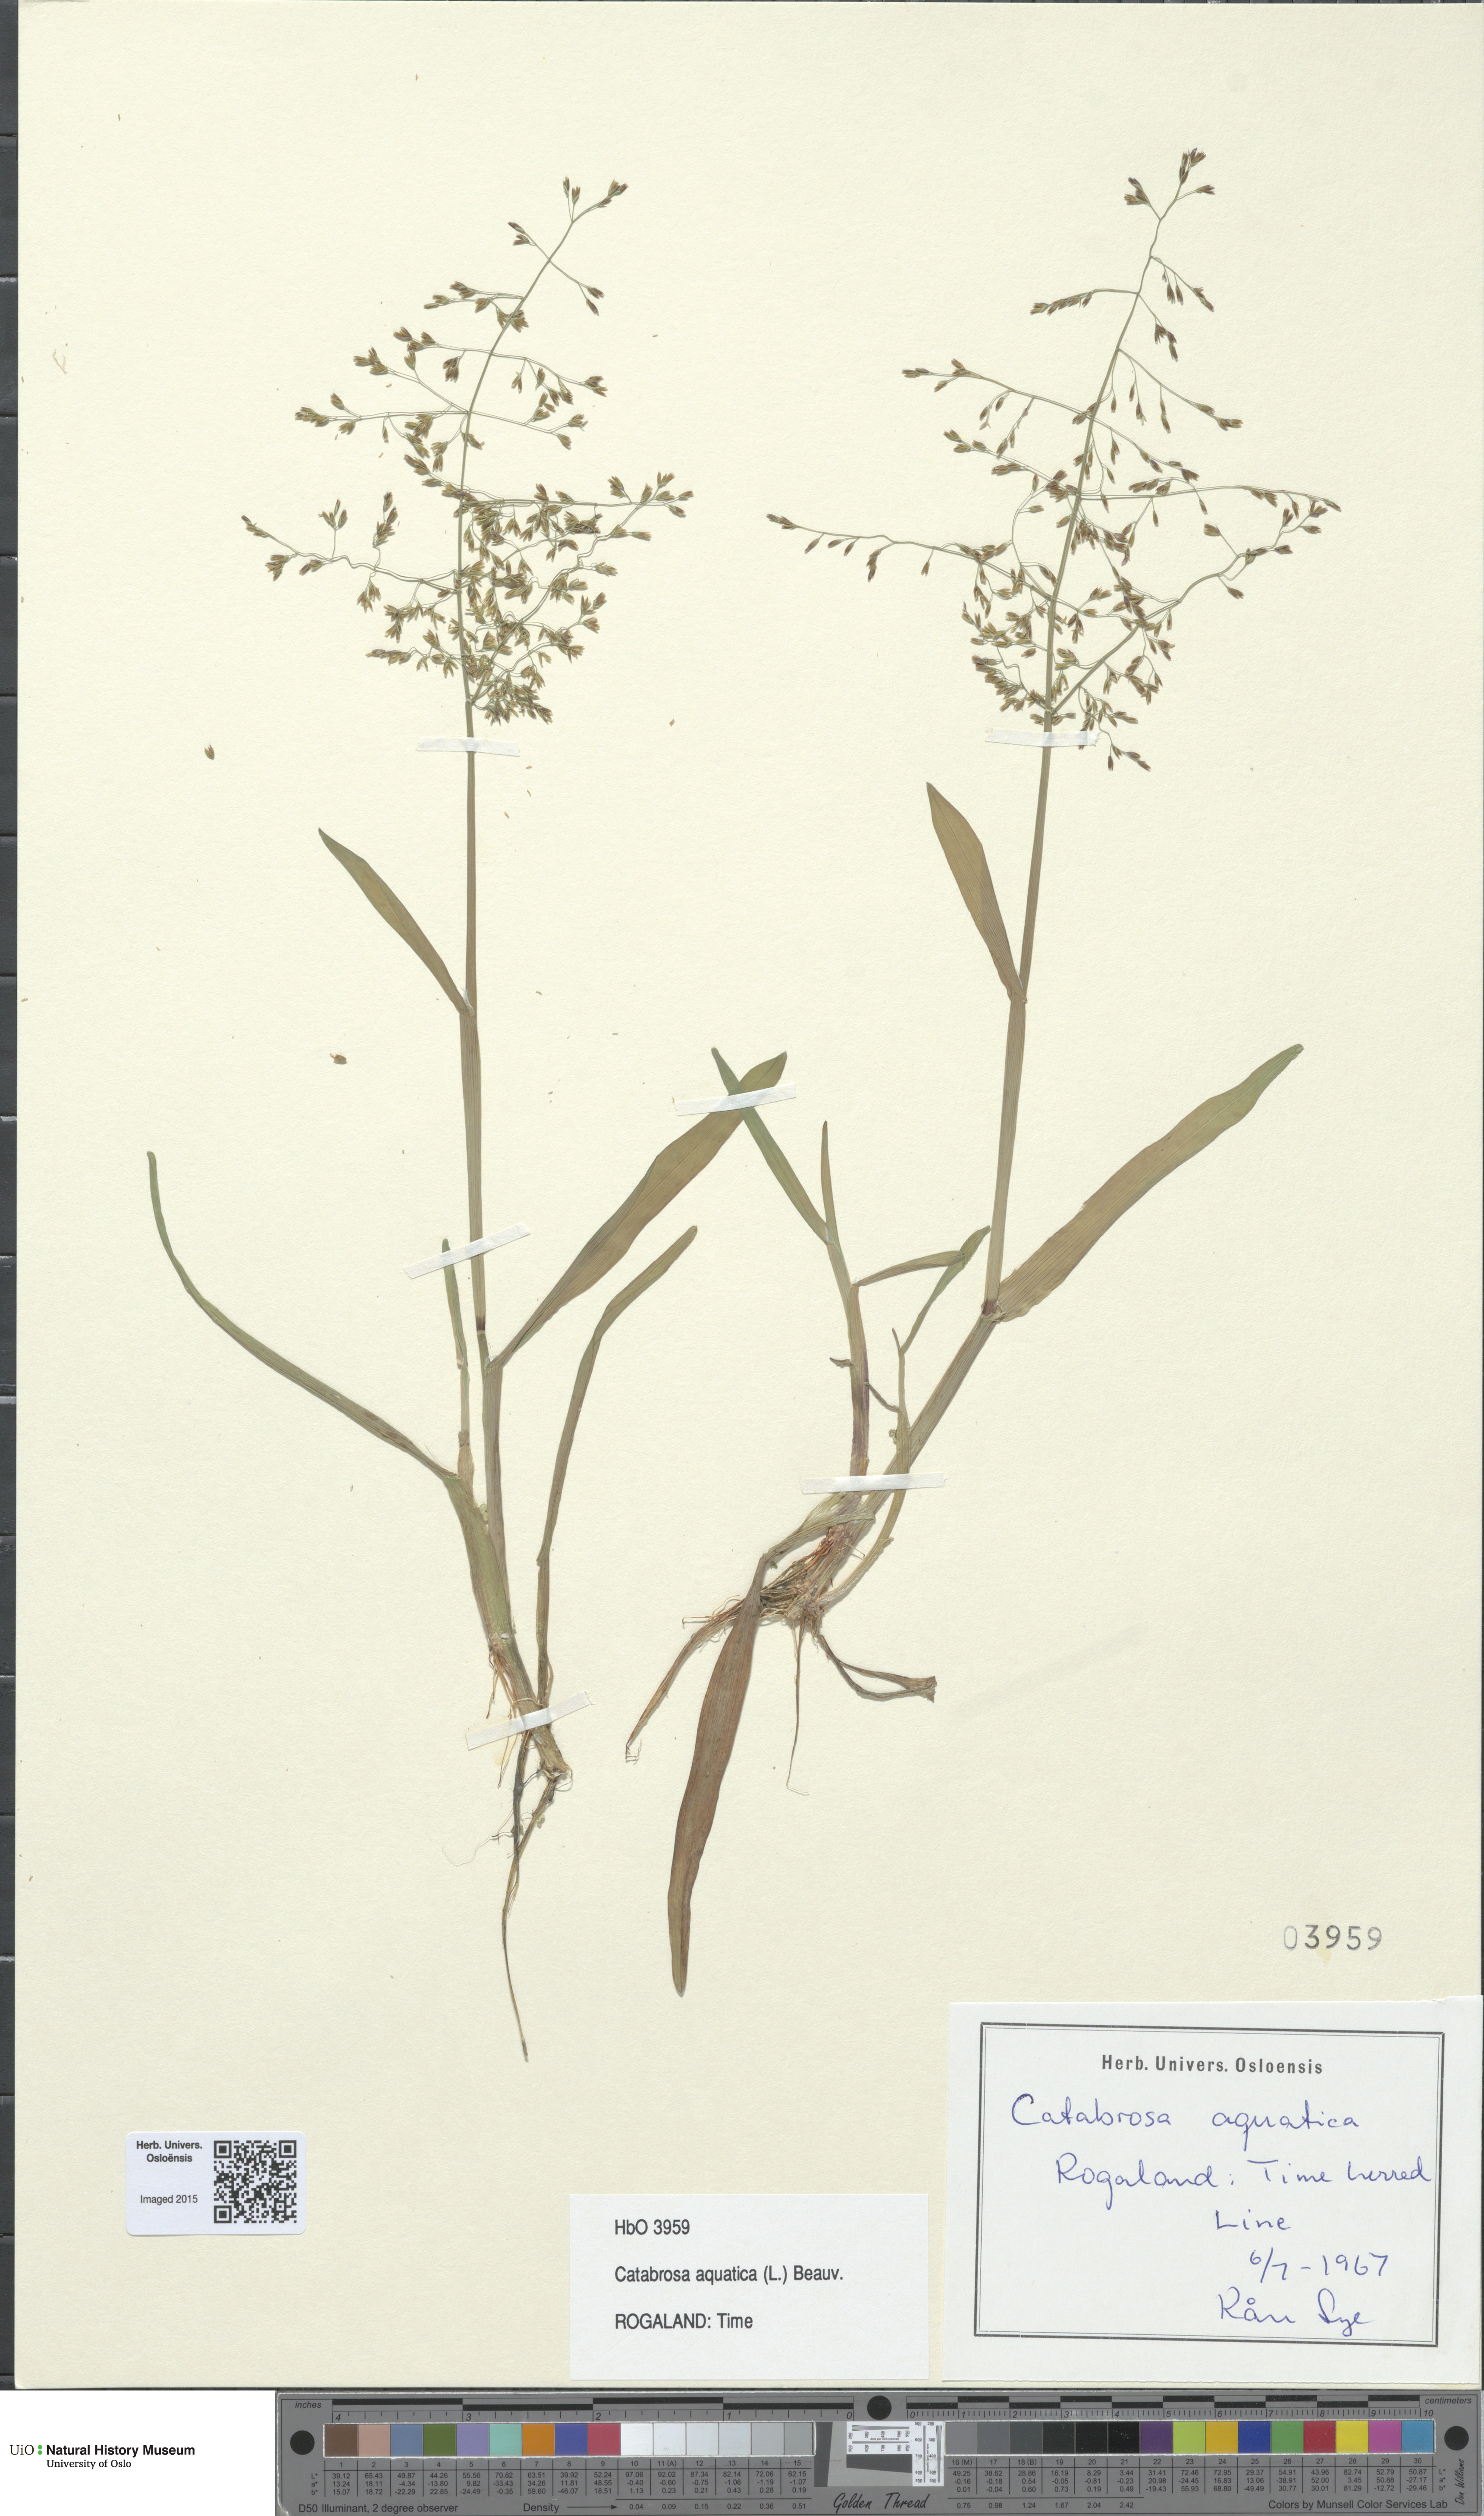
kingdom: Plantae
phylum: Tracheophyta
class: Liliopsida
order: Poales
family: Poaceae
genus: Catabrosa
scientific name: Catabrosa aquatica
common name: Whorl-grass
